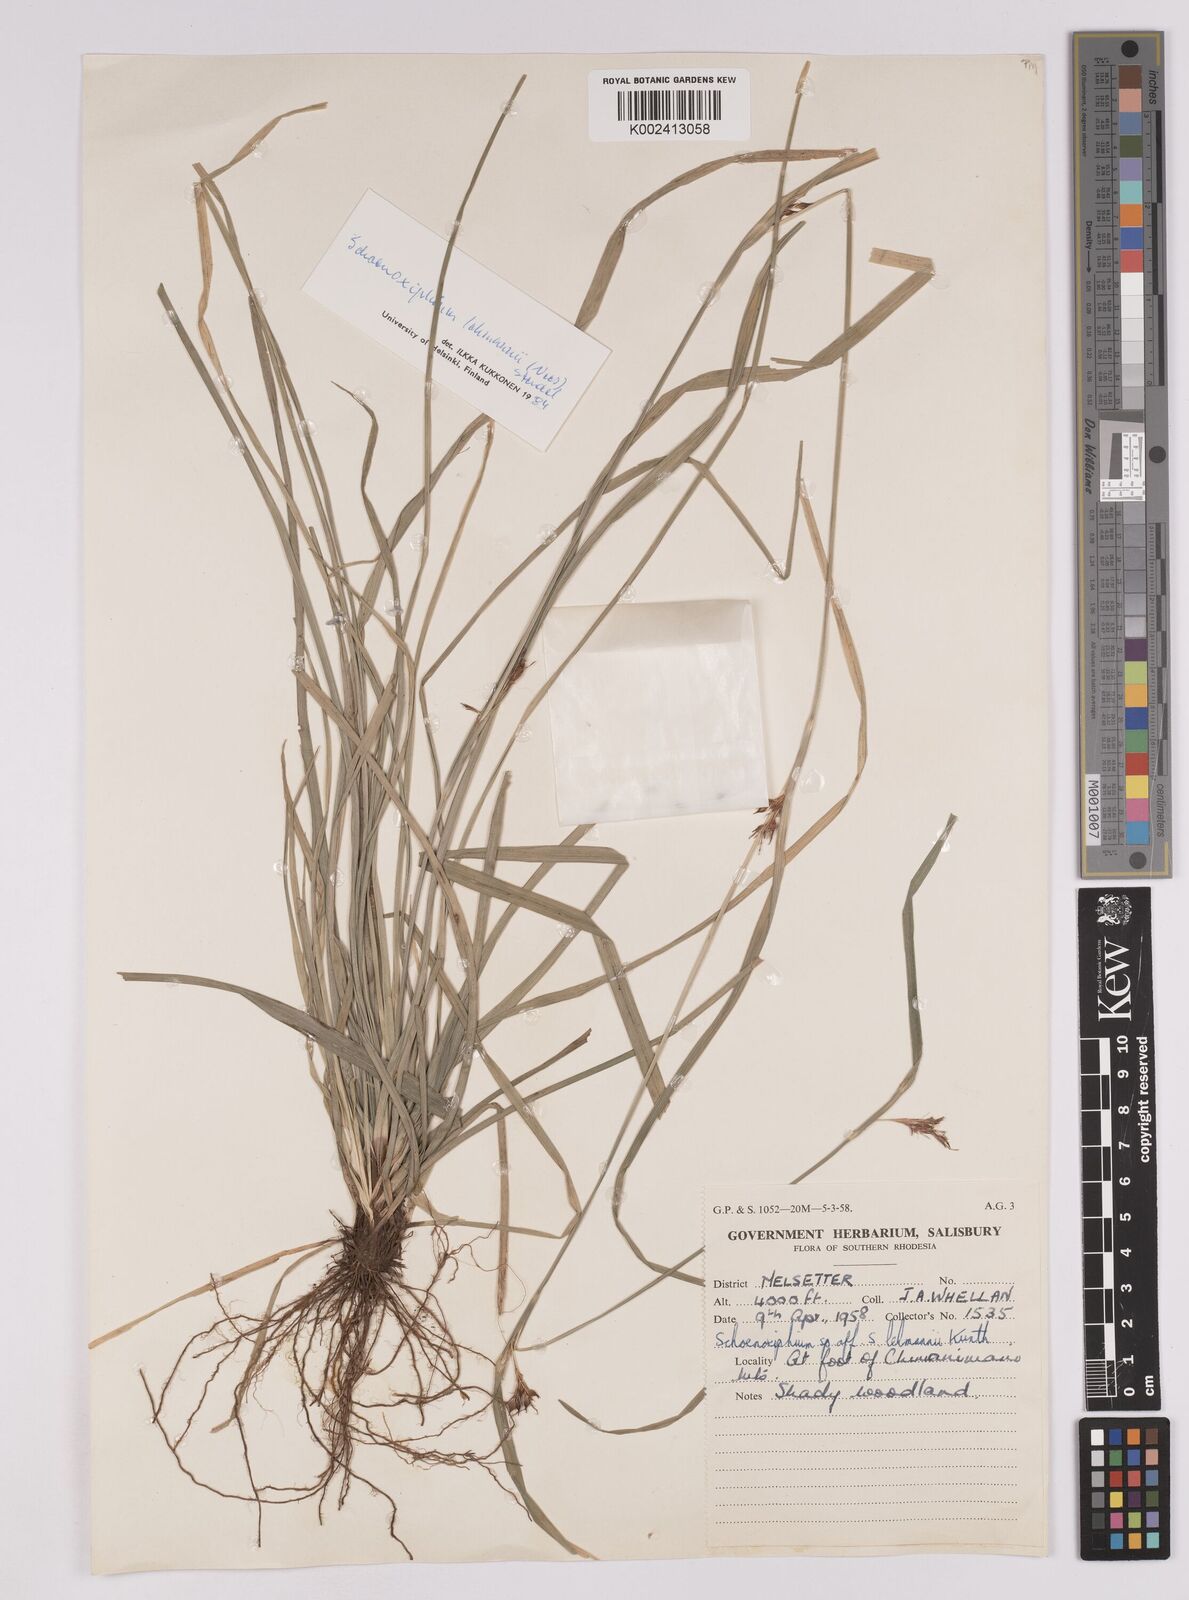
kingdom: Plantae
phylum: Tracheophyta
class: Liliopsida
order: Poales
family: Cyperaceae
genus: Carex
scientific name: Carex uhligii
